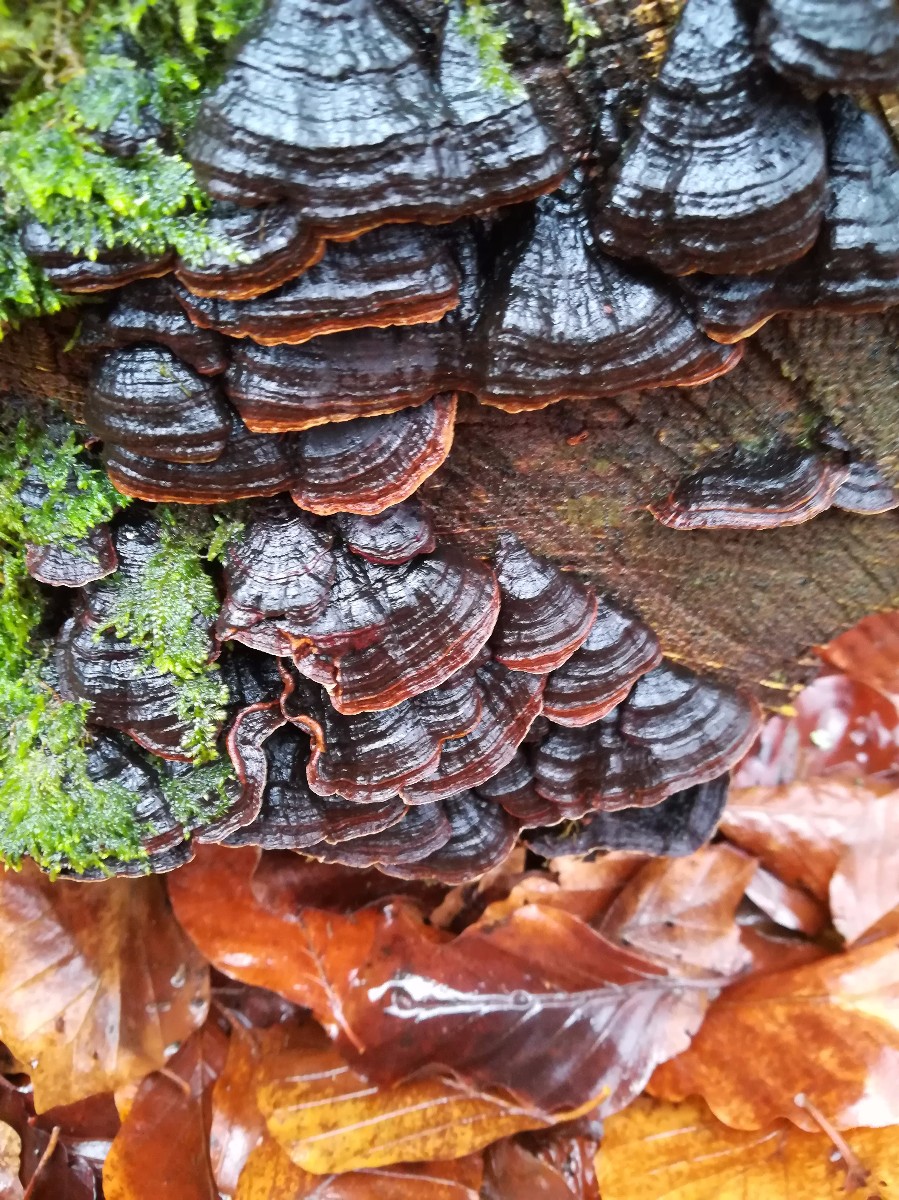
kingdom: Fungi
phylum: Basidiomycota
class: Agaricomycetes
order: Hymenochaetales
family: Hymenochaetaceae
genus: Hymenochaete
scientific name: Hymenochaete rubiginosa
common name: stiv ruslædersvamp
